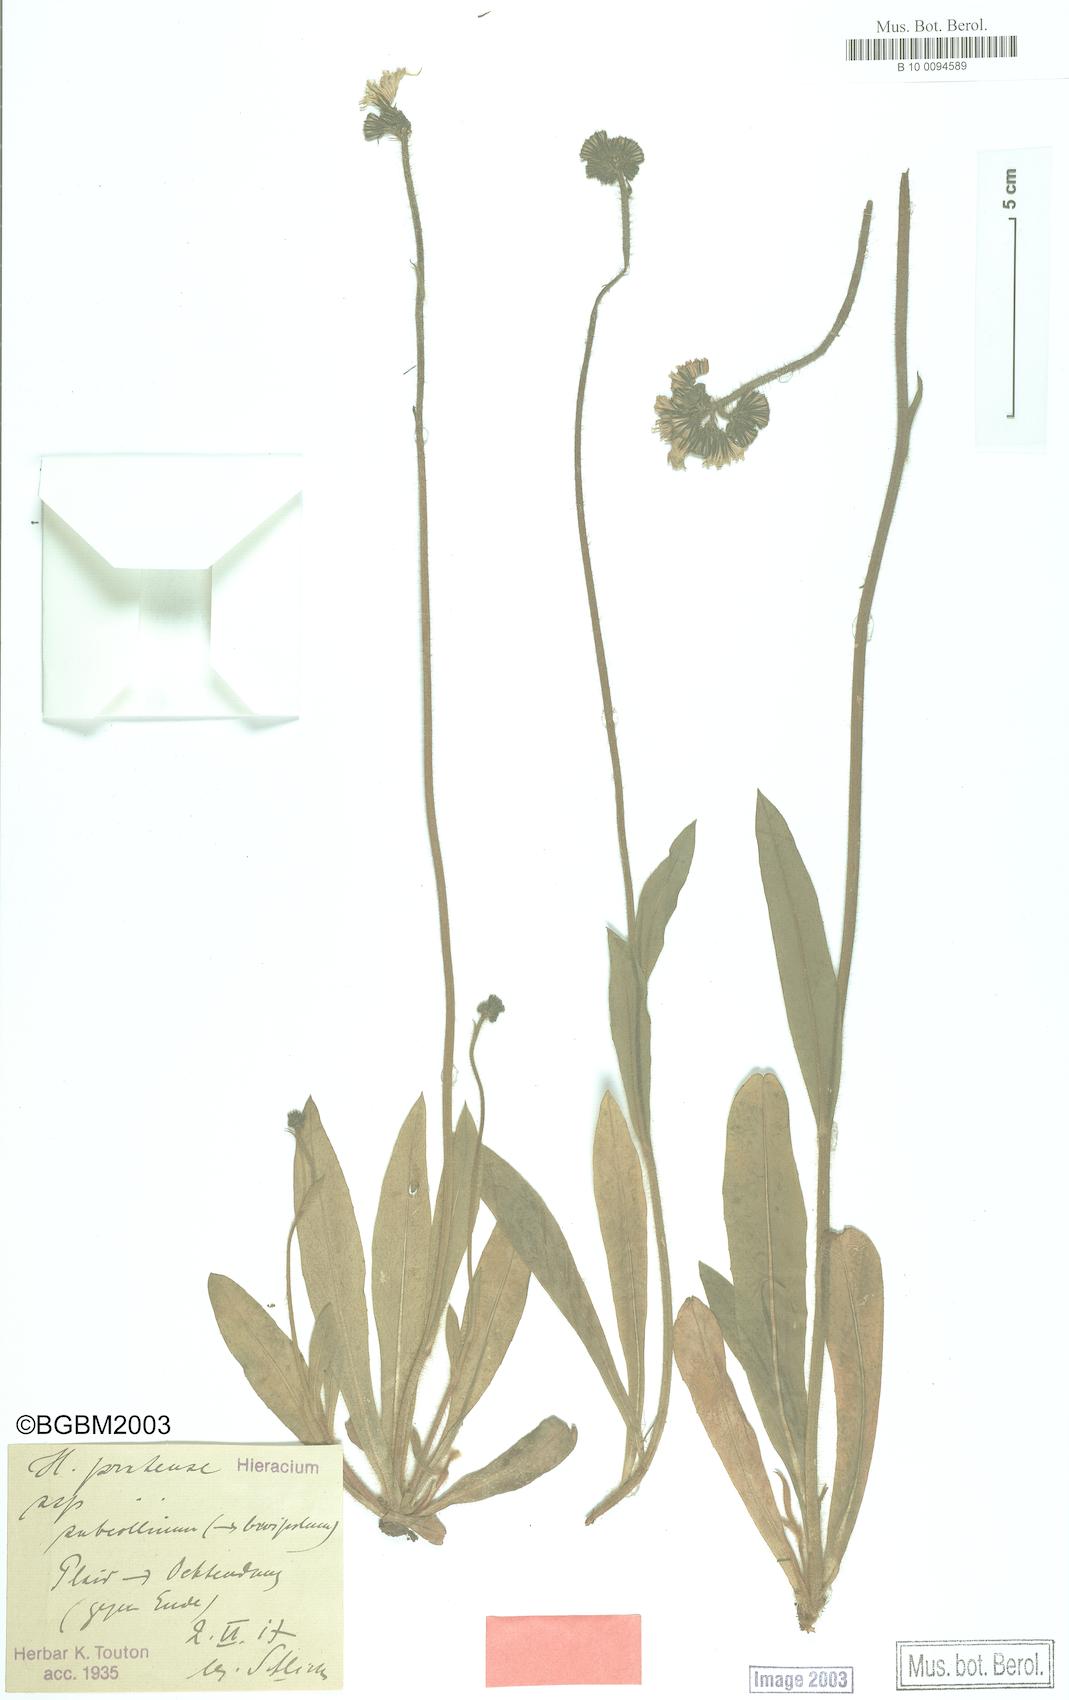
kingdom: Plantae
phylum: Tracheophyta
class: Magnoliopsida
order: Asterales
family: Asteraceae
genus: Pilosella
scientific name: Pilosella caespitosa
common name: Yellow fox-and-cubs
